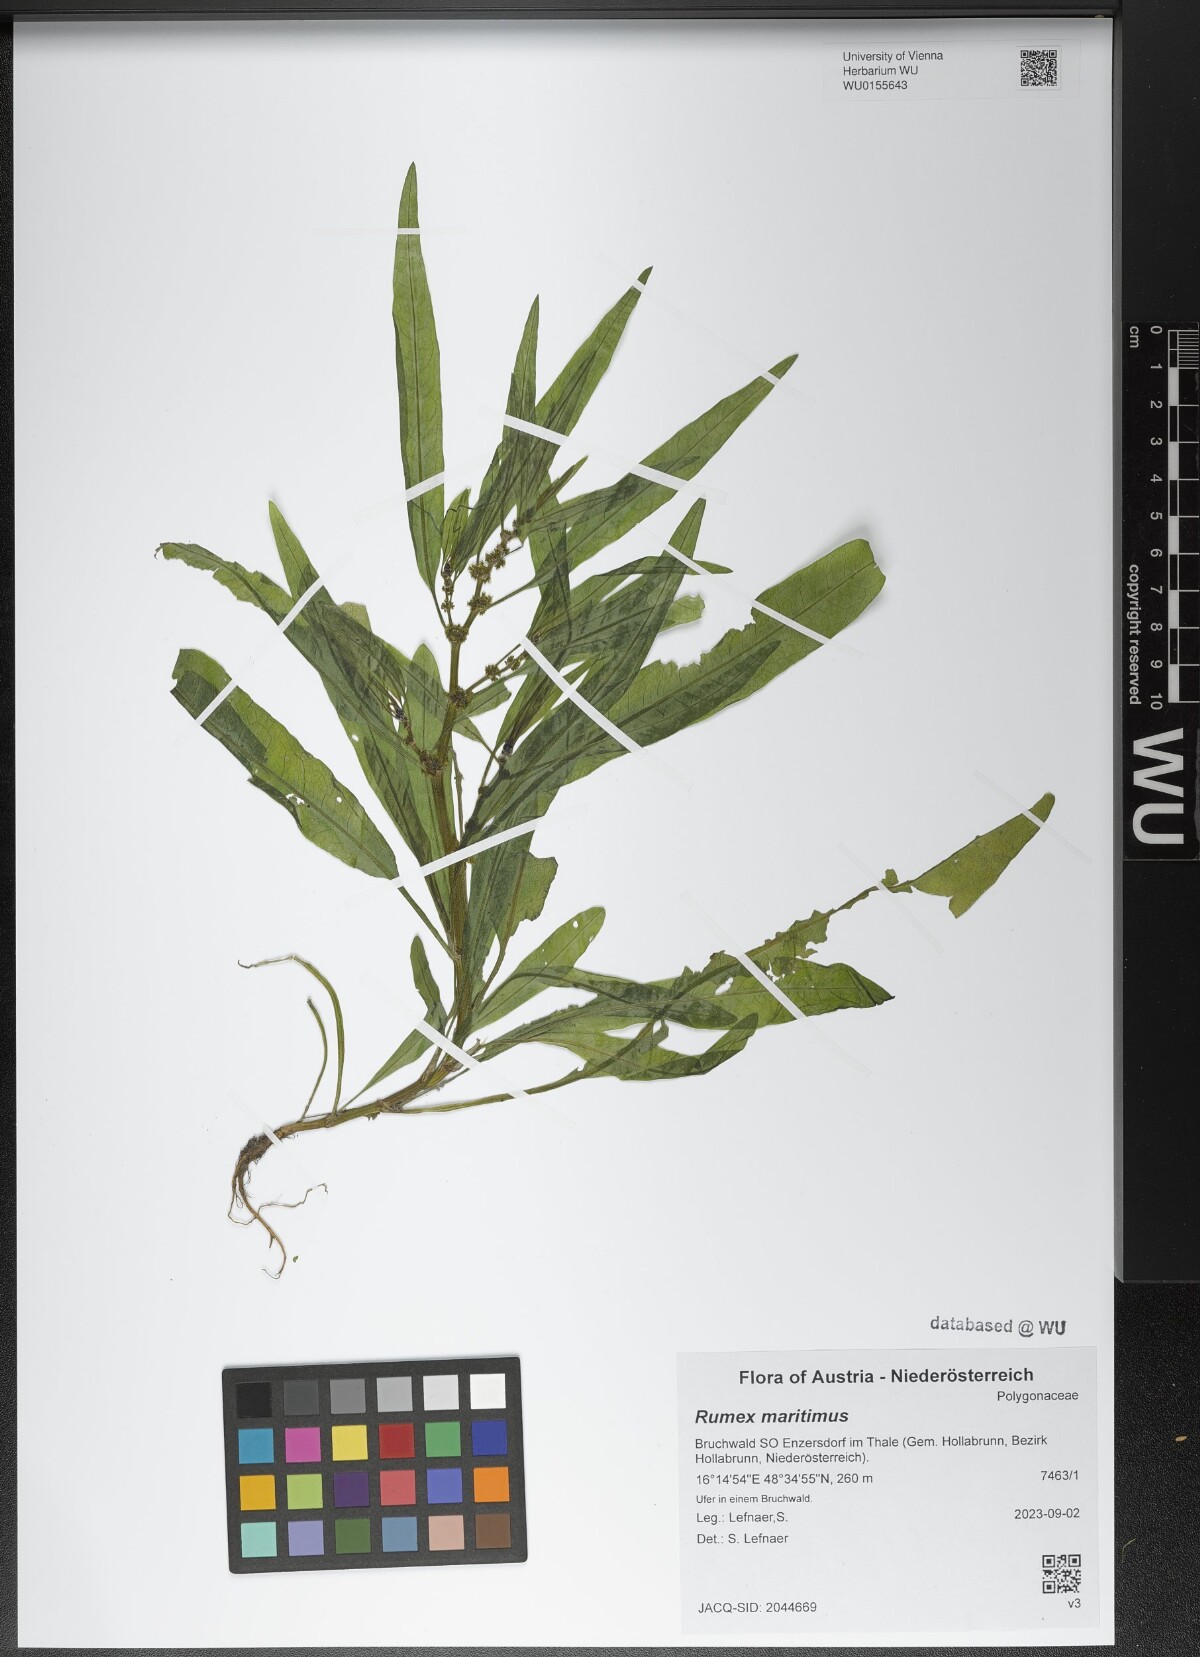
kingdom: Plantae
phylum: Tracheophyta
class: Magnoliopsida
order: Caryophyllales
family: Polygonaceae
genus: Rumex
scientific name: Rumex maritimus
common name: Golden dock
